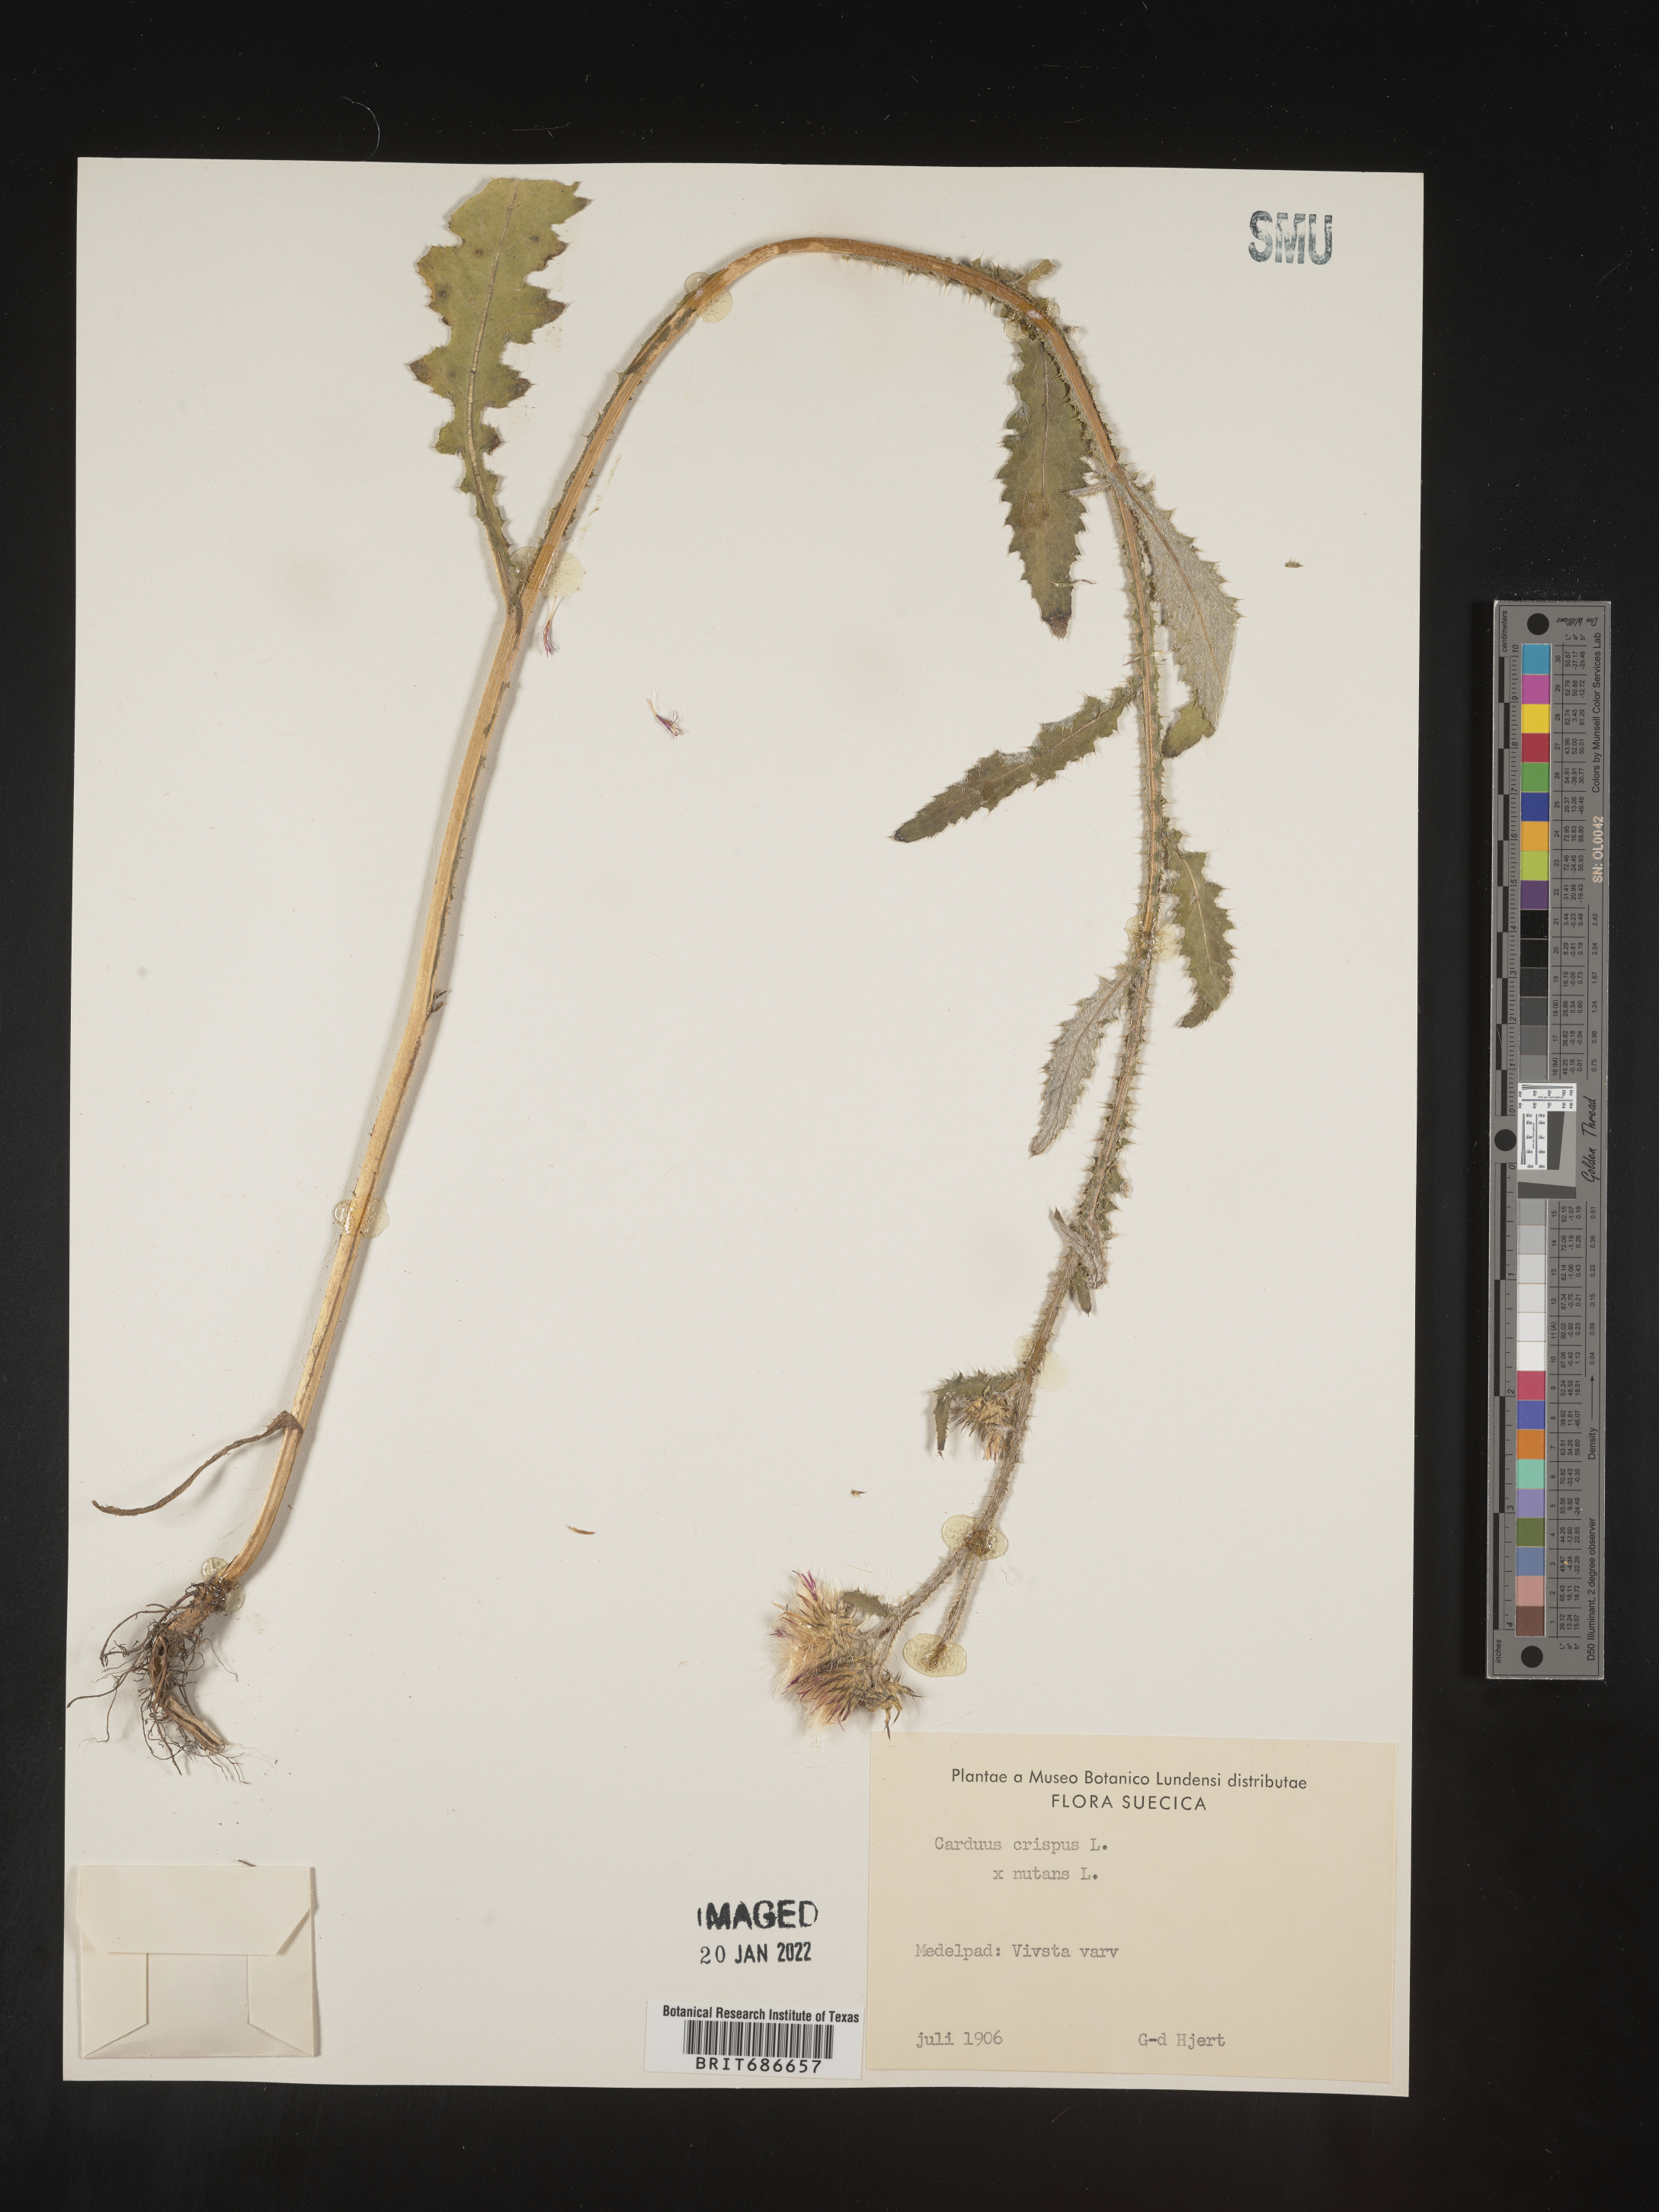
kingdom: Plantae
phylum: Tracheophyta
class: Magnoliopsida
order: Asterales
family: Asteraceae
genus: Carduus
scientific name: Carduus crispus
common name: Welted thistle
